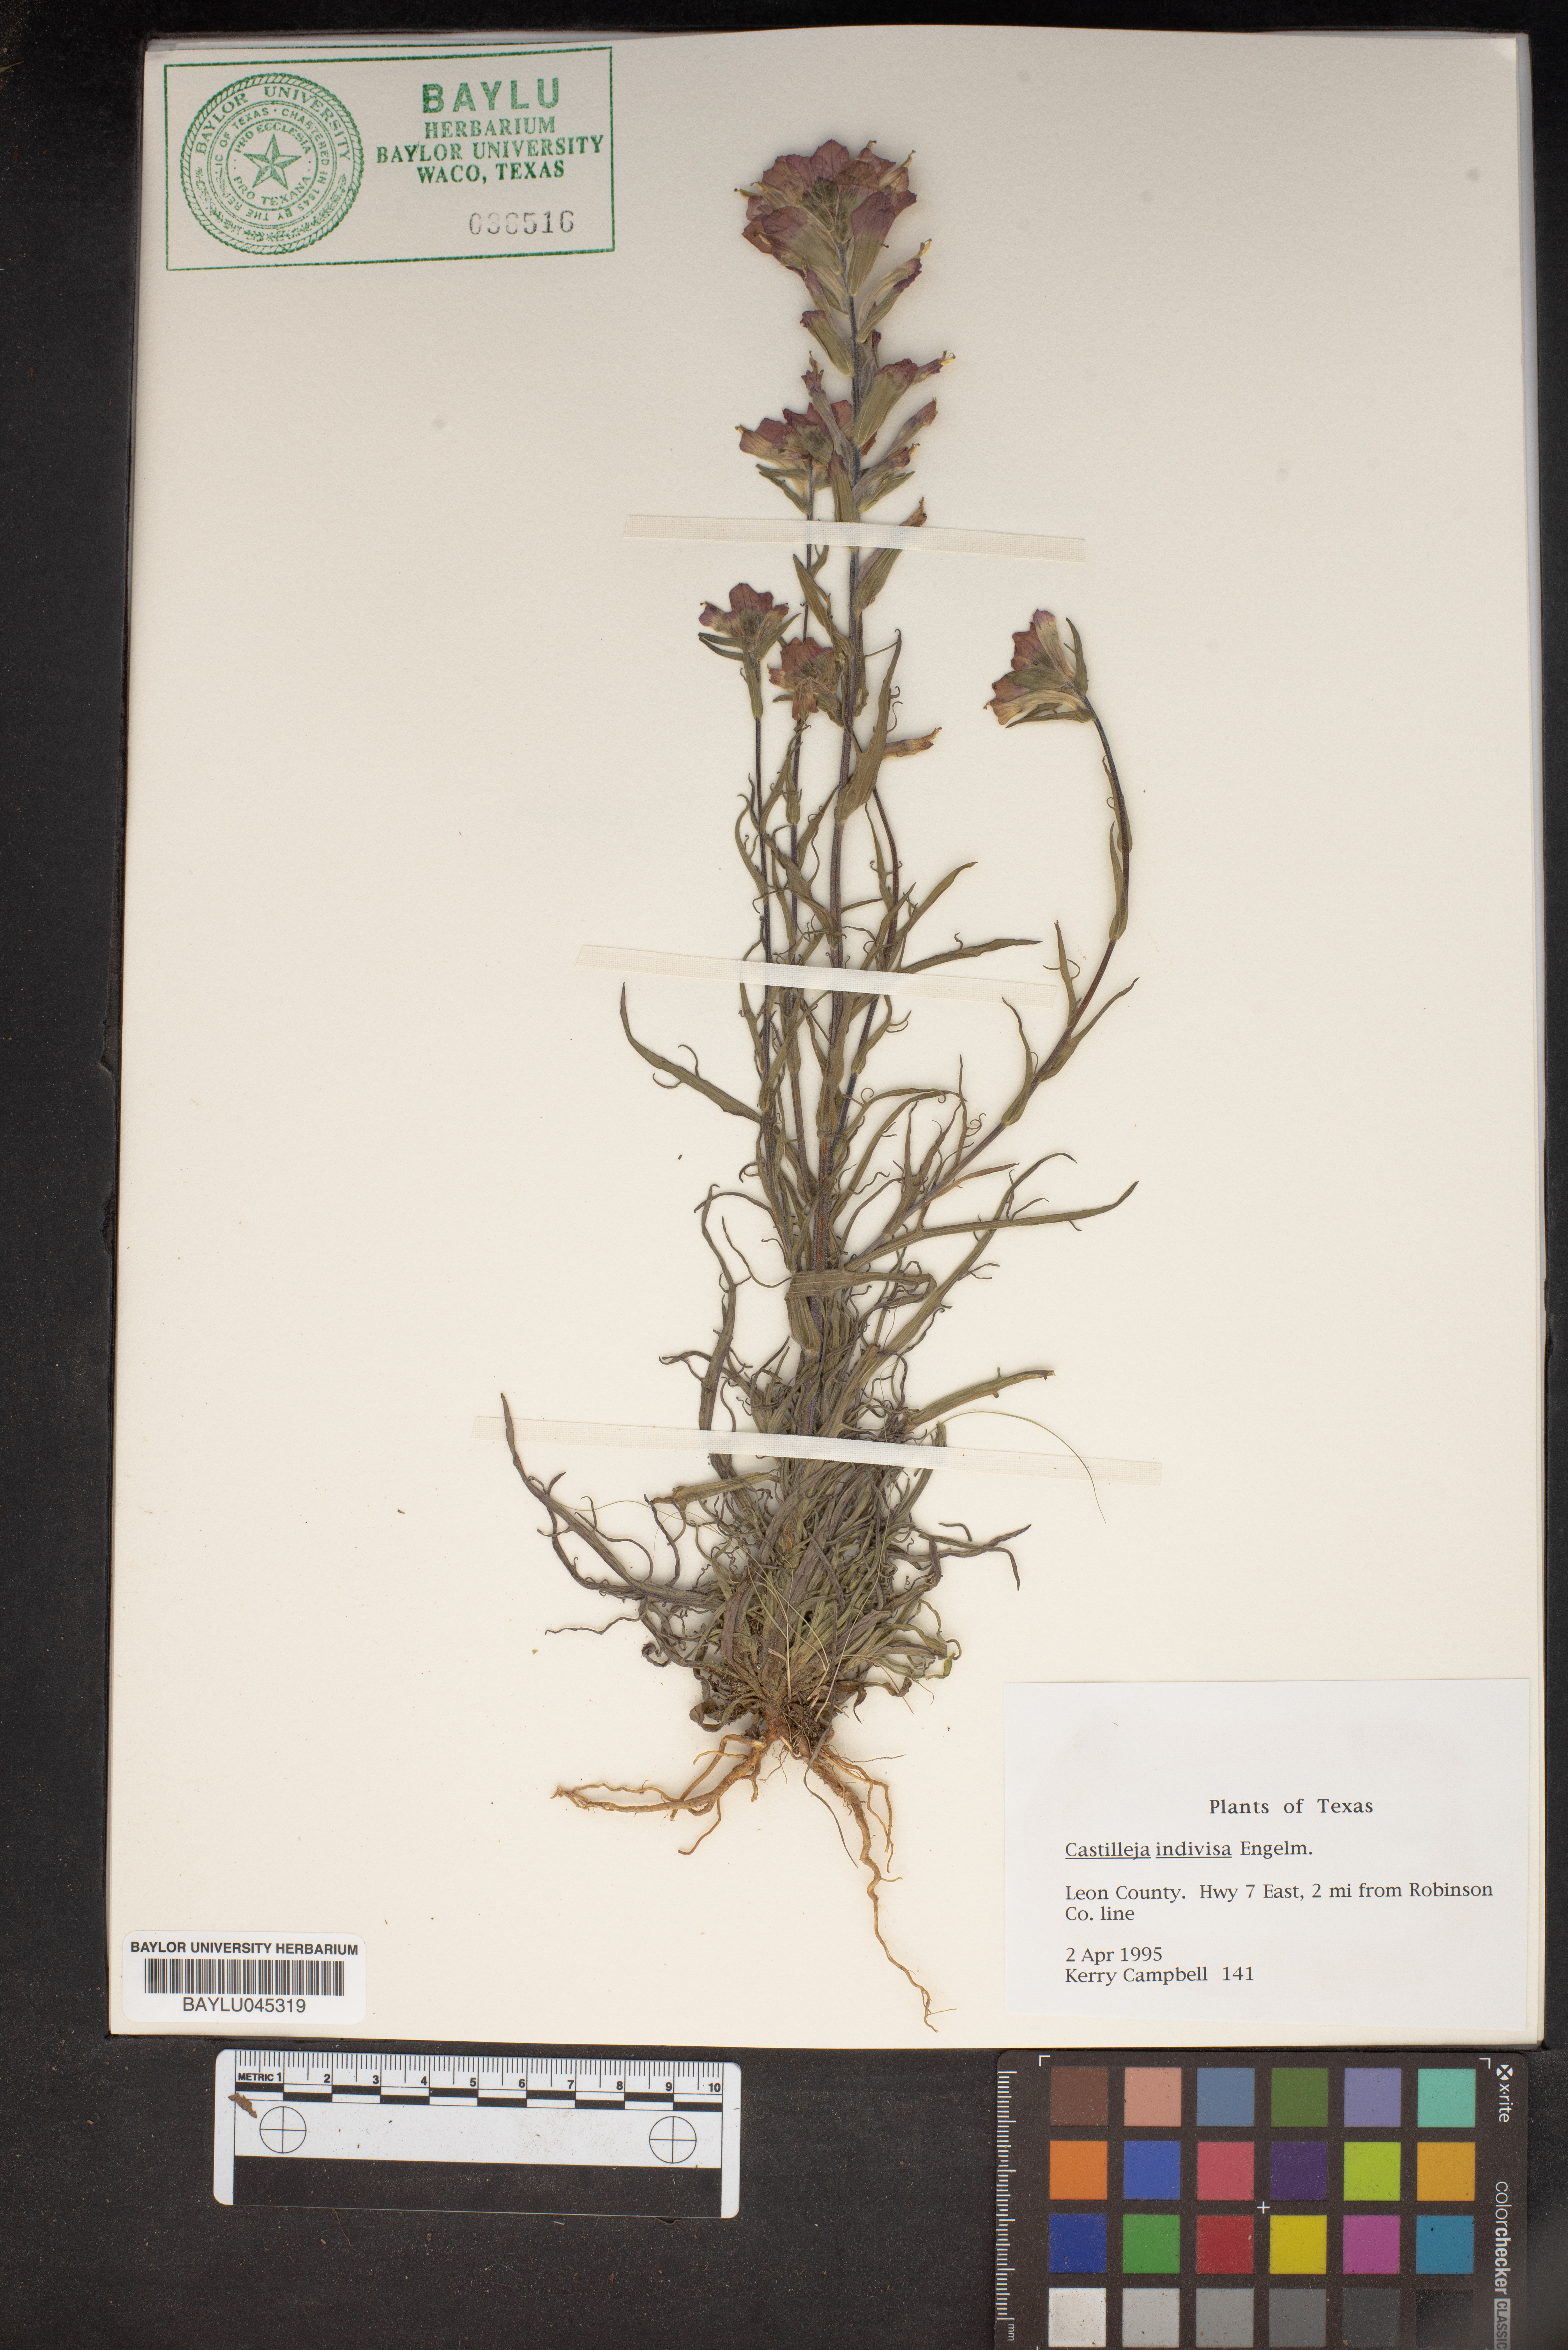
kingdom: Plantae
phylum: Tracheophyta
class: Magnoliopsida
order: Lamiales
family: Orobanchaceae
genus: Castilleja
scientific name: Castilleja indivisa
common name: Texas paintbrush
